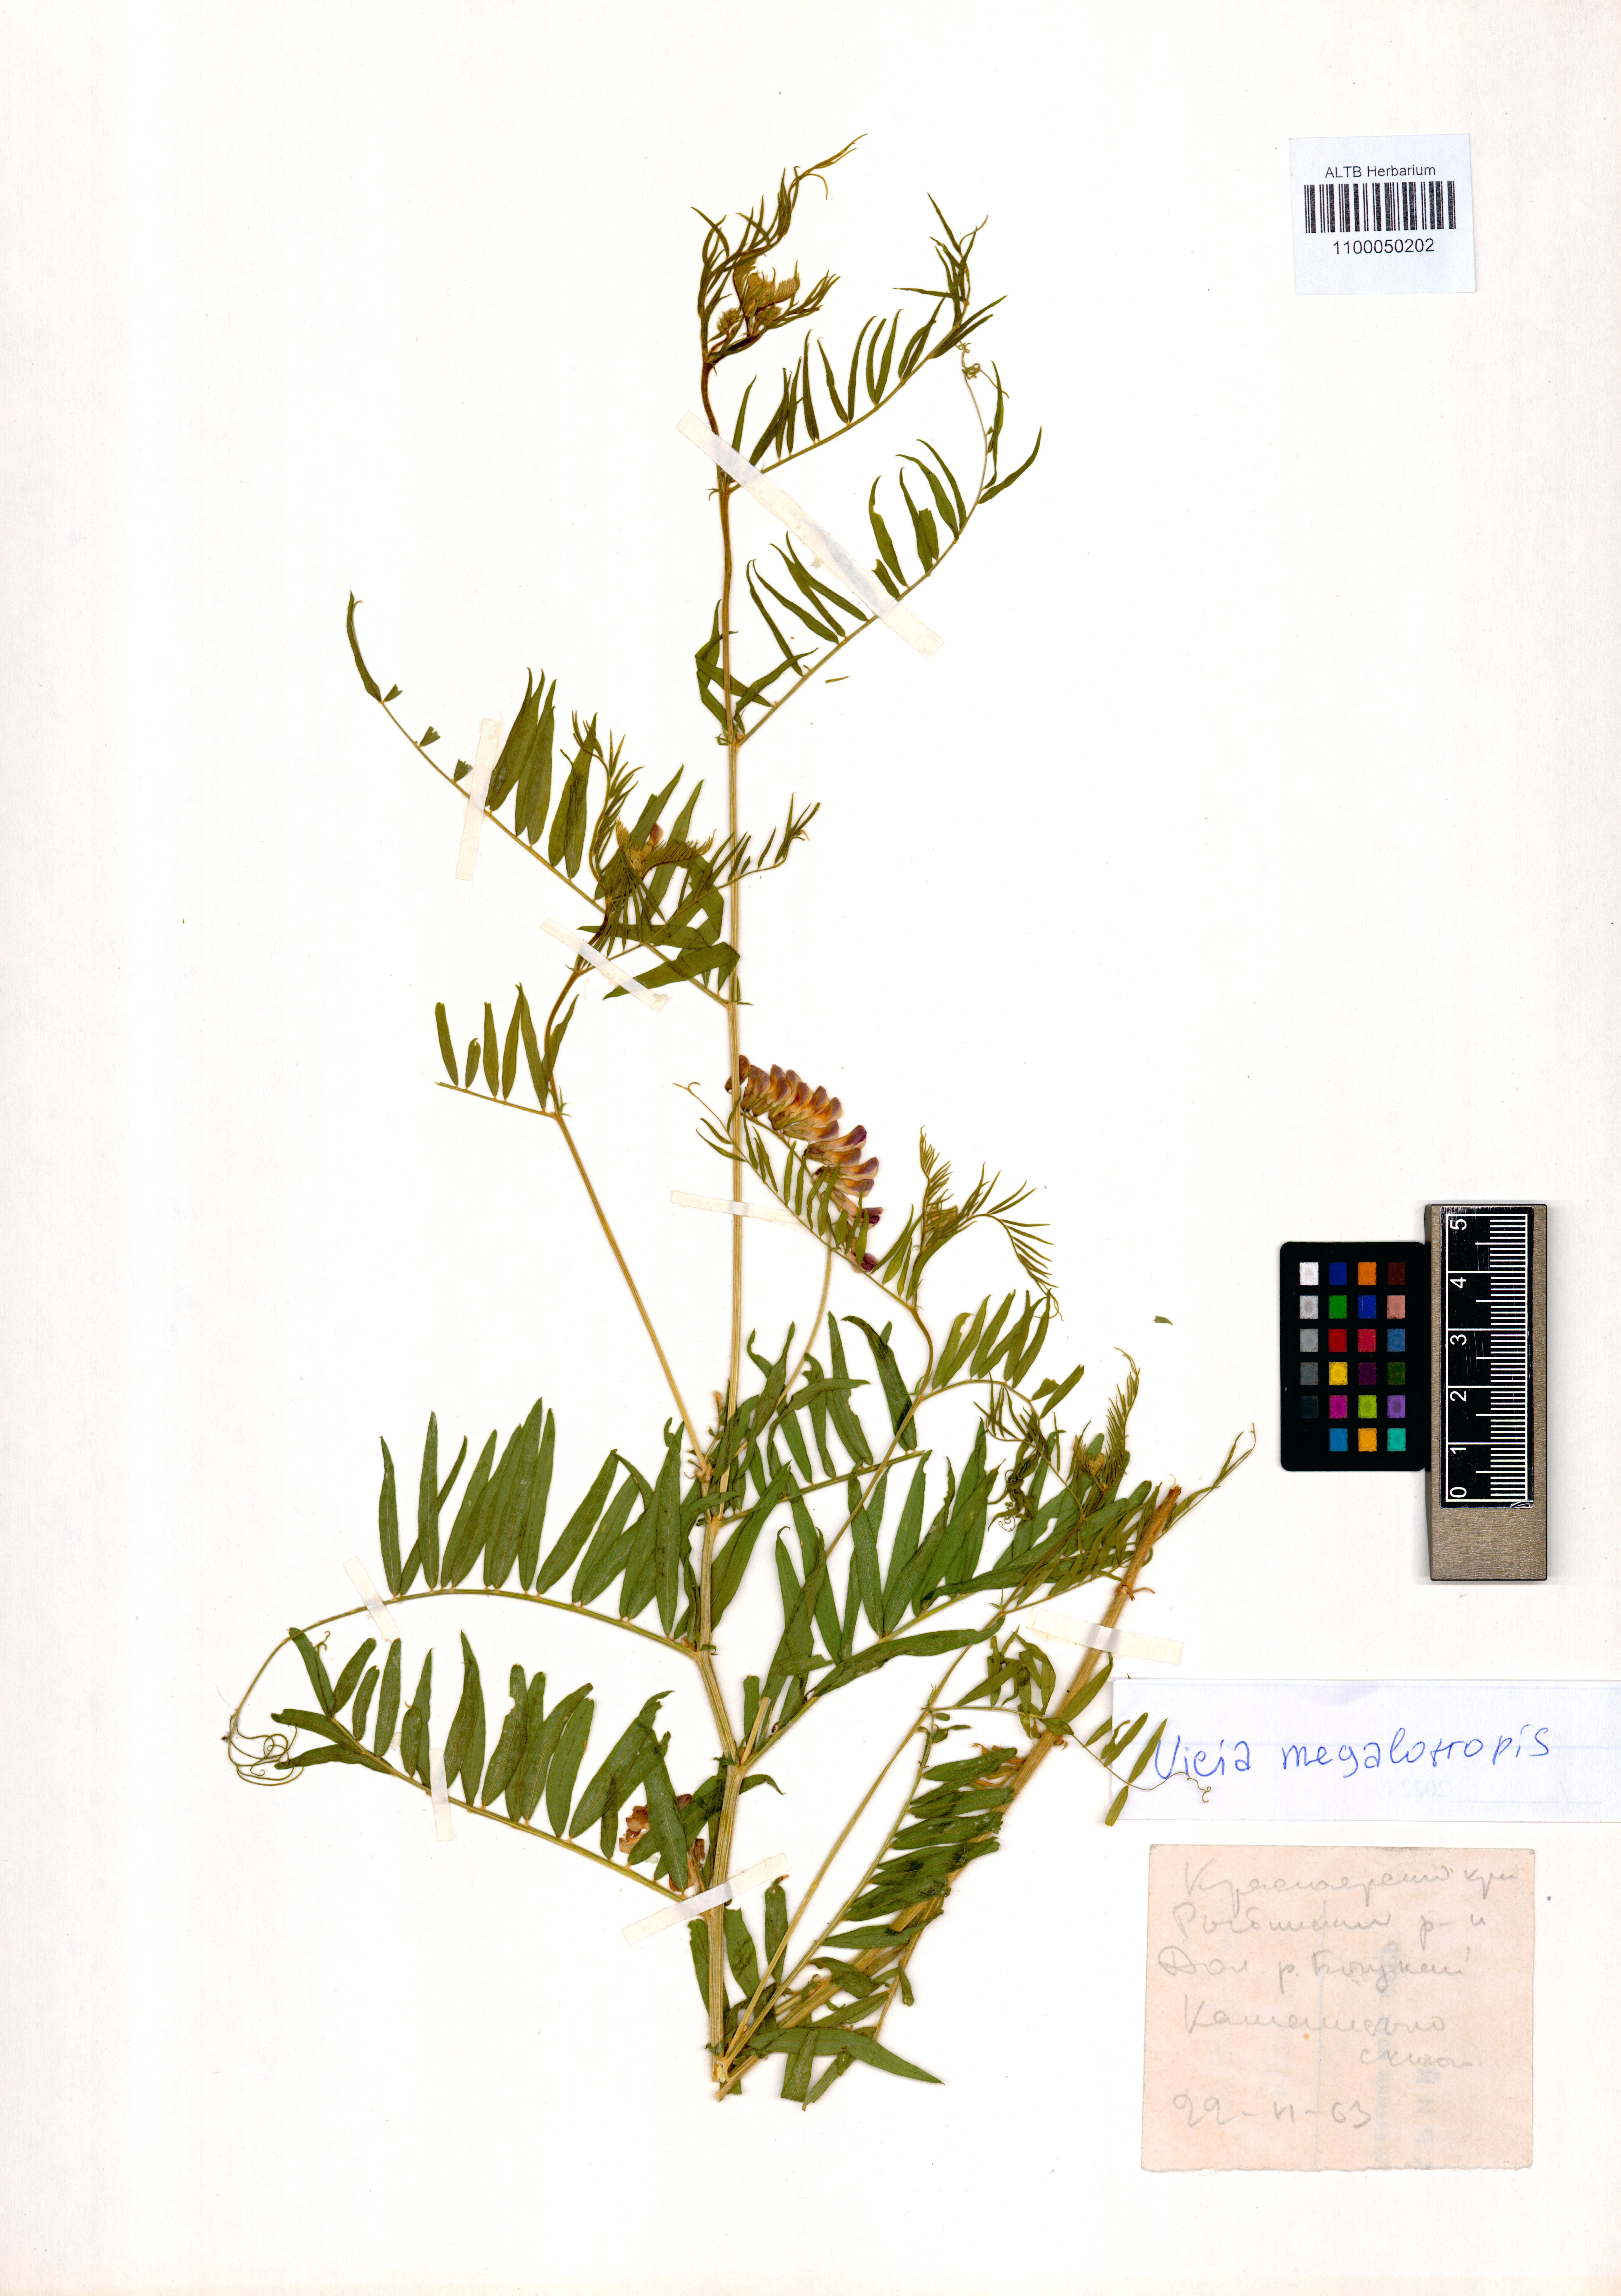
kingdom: Plantae
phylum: Tracheophyta
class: Magnoliopsida
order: Fabales
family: Fabaceae
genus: Vicia
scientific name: Vicia megalotropis
